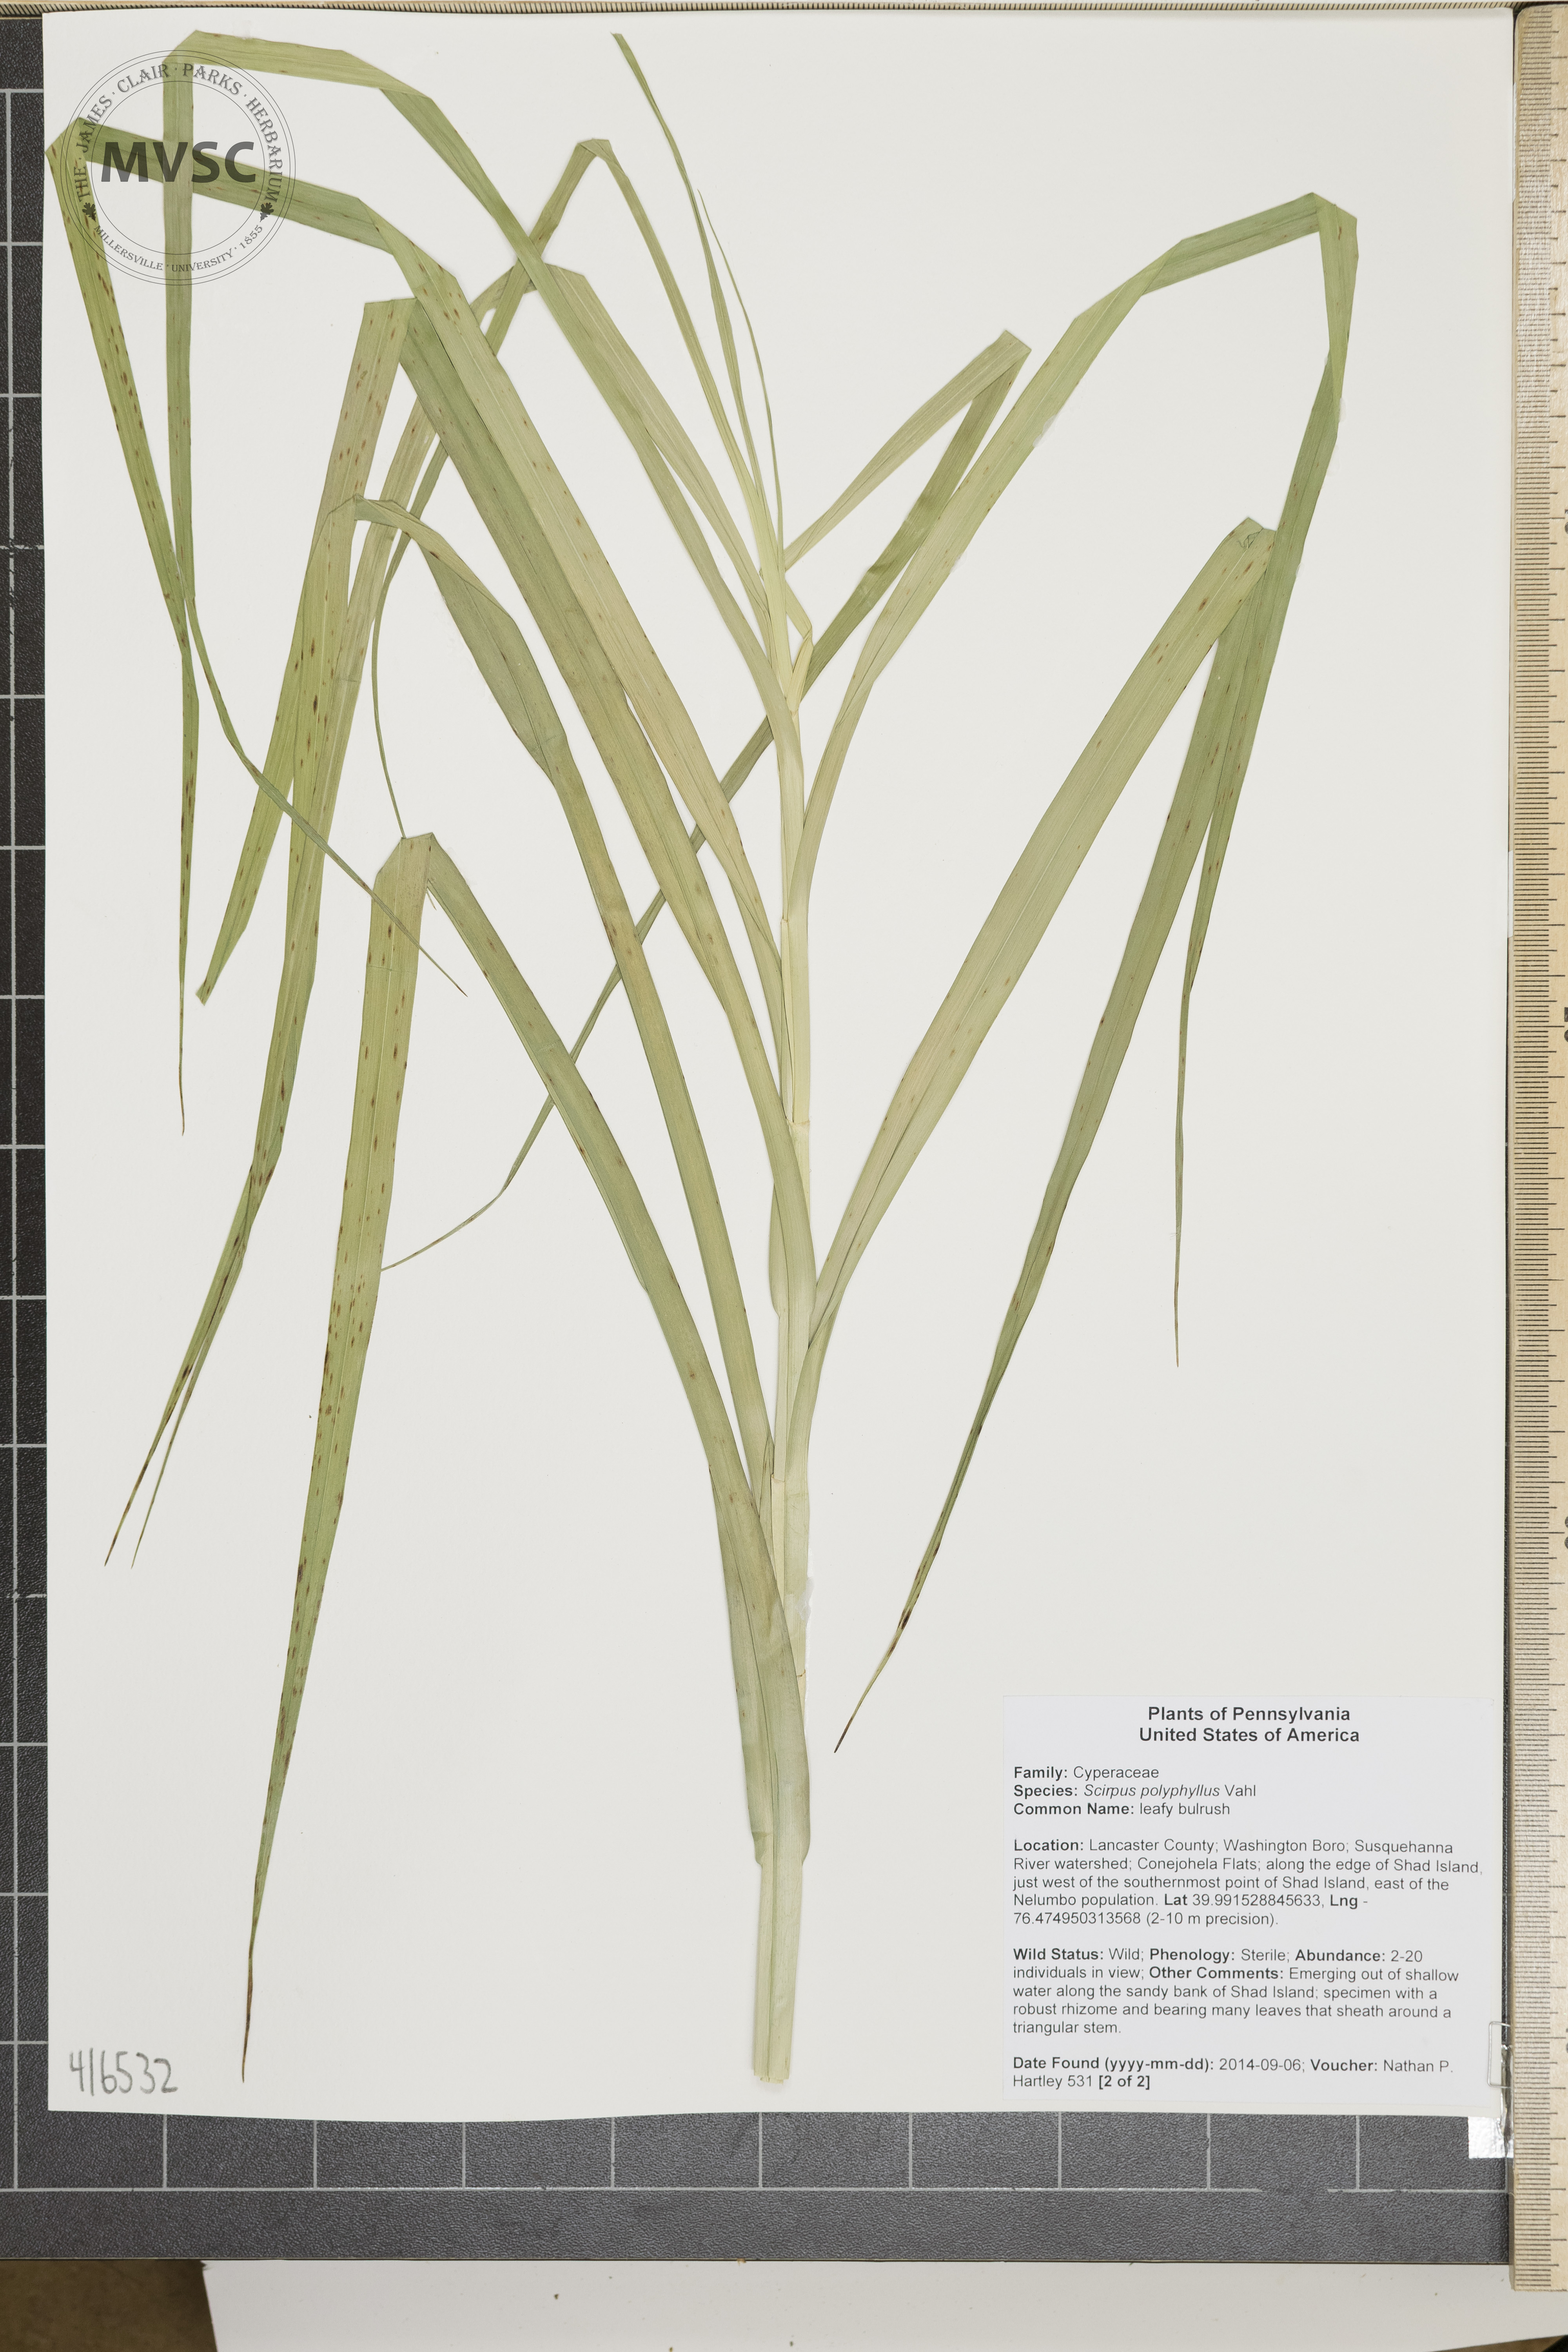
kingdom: Plantae
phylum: Tracheophyta
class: Liliopsida
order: Poales
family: Cyperaceae
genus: Scirpus
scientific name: Scirpus polyphyllus
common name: leafy bulrush
